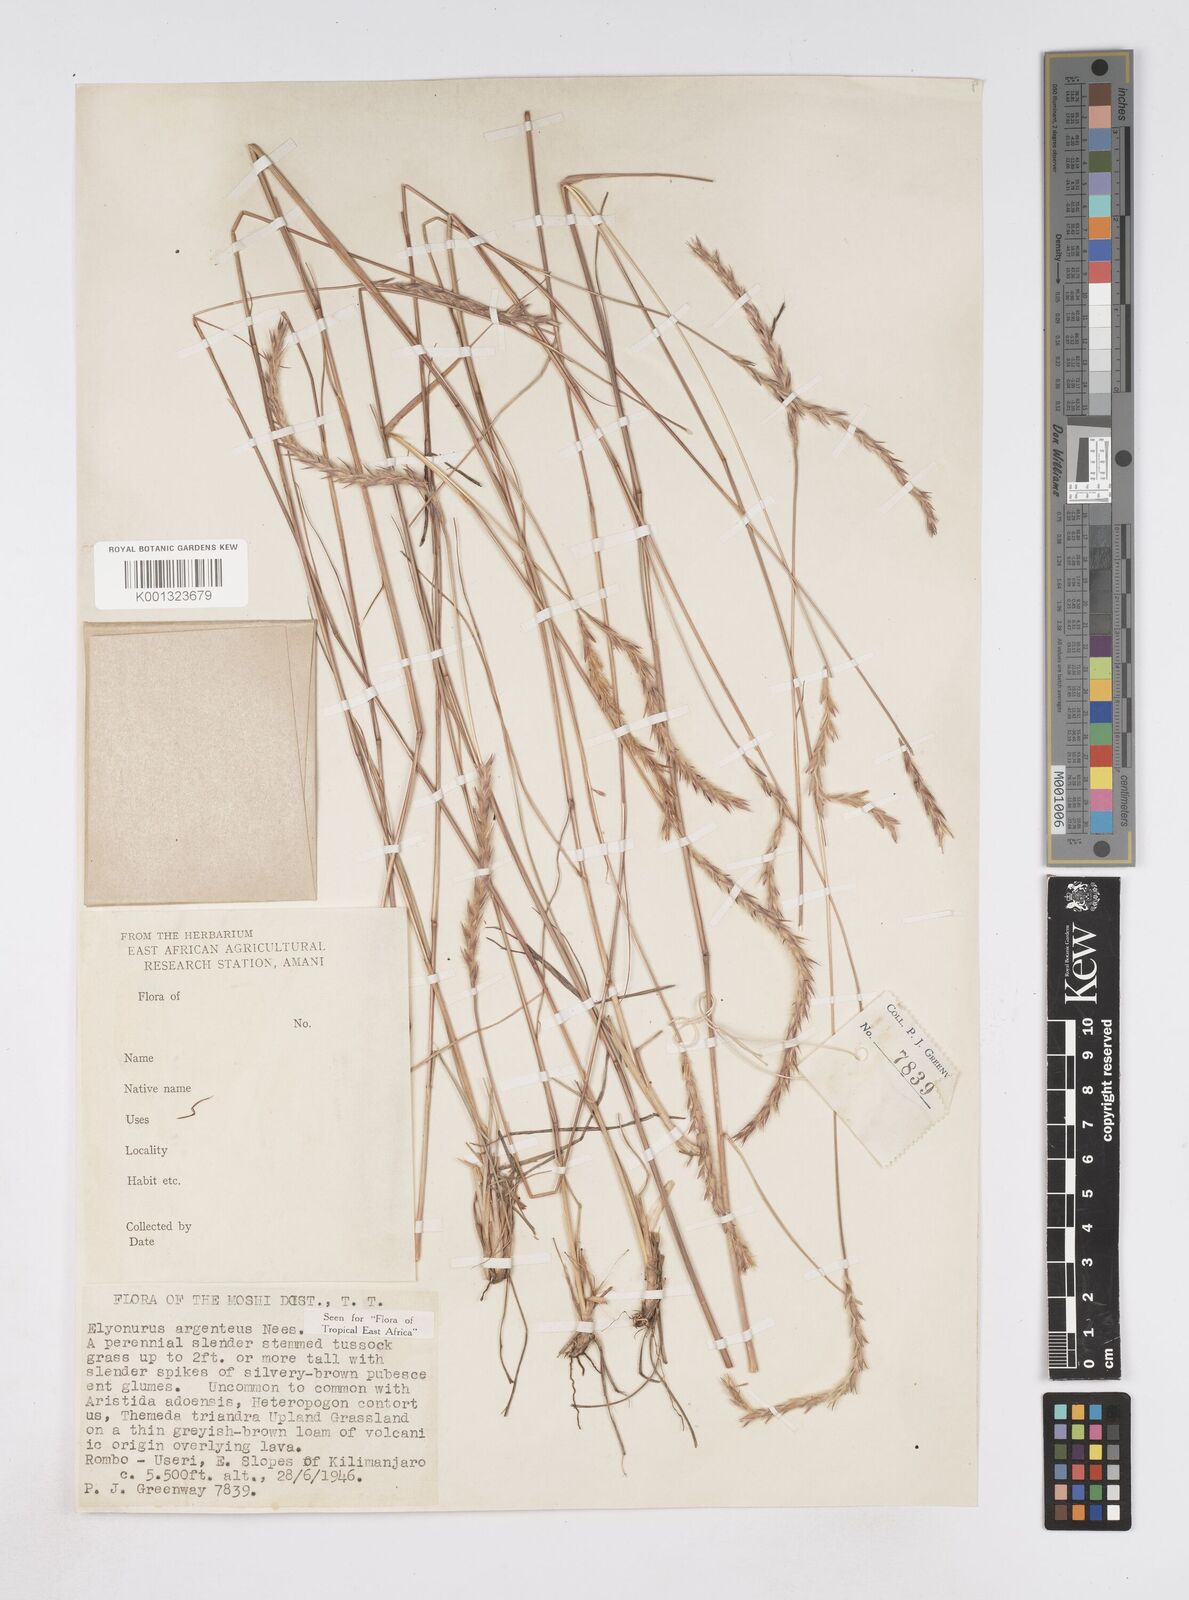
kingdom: Plantae
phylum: Tracheophyta
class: Liliopsida
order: Poales
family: Poaceae
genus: Elionurus
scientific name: Elionurus muticus
